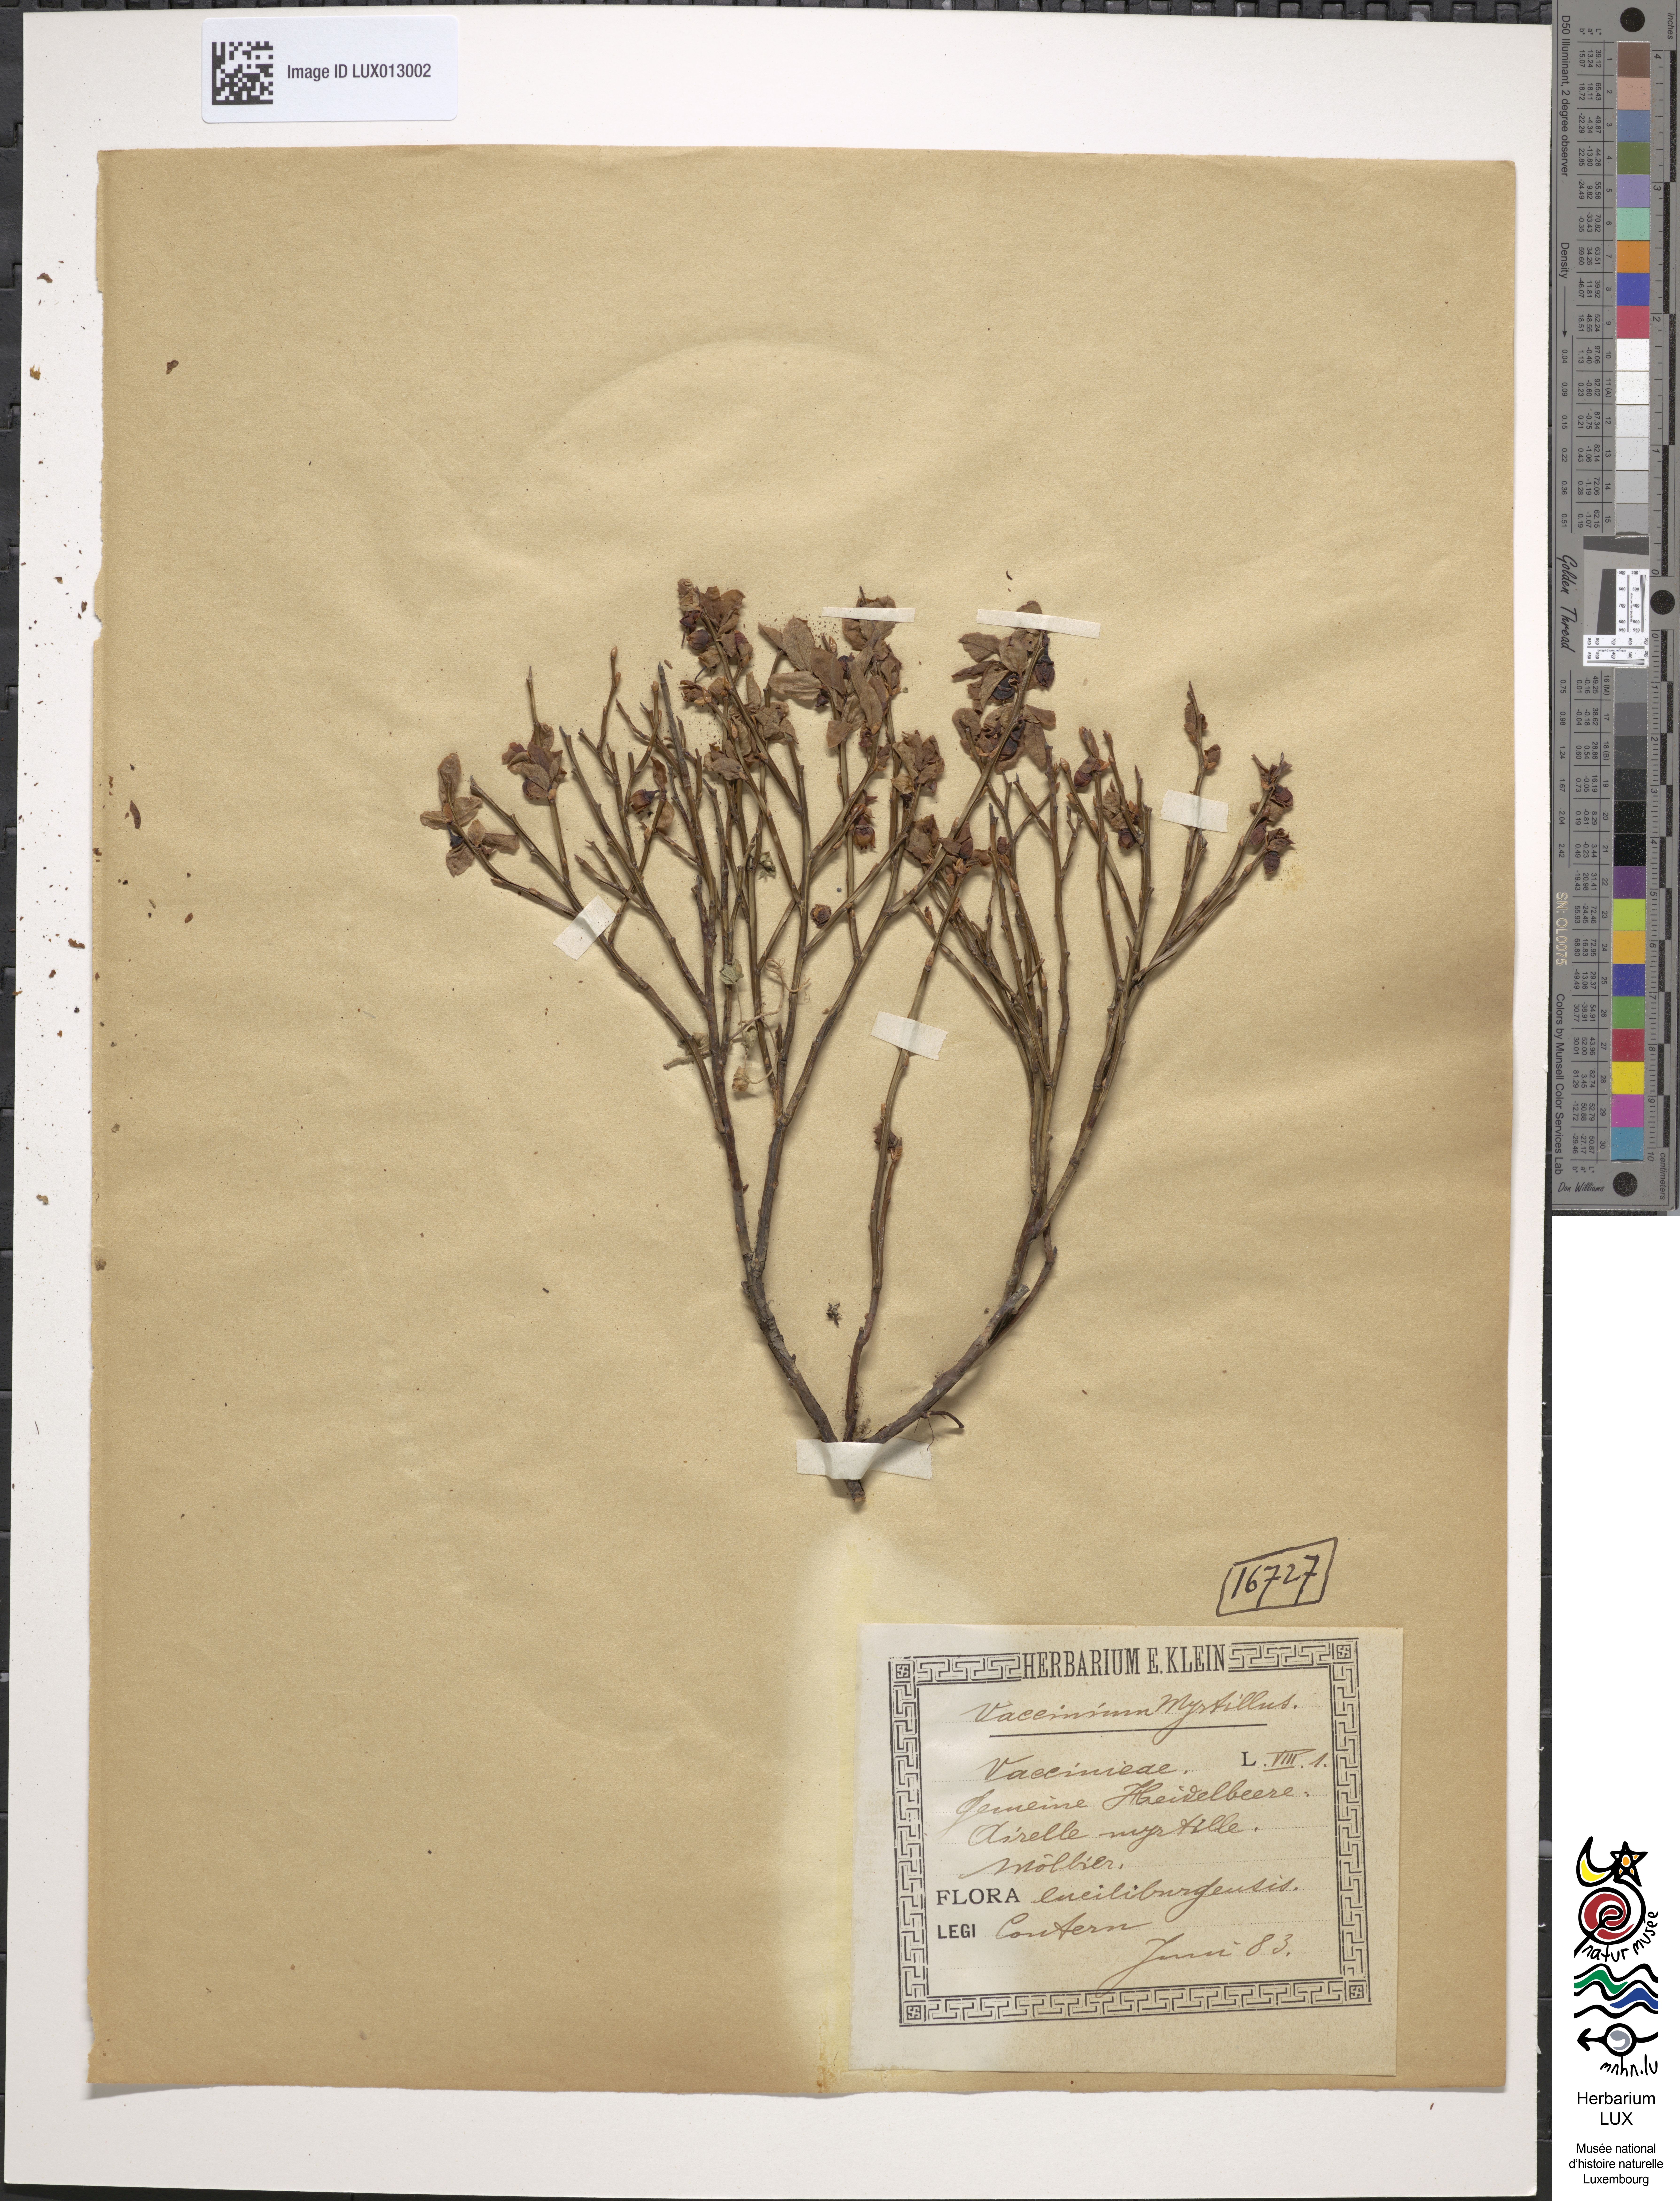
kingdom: Plantae
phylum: Tracheophyta
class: Magnoliopsida
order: Ericales
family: Ericaceae
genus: Vaccinium
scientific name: Vaccinium myrtillus
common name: Bilberry
